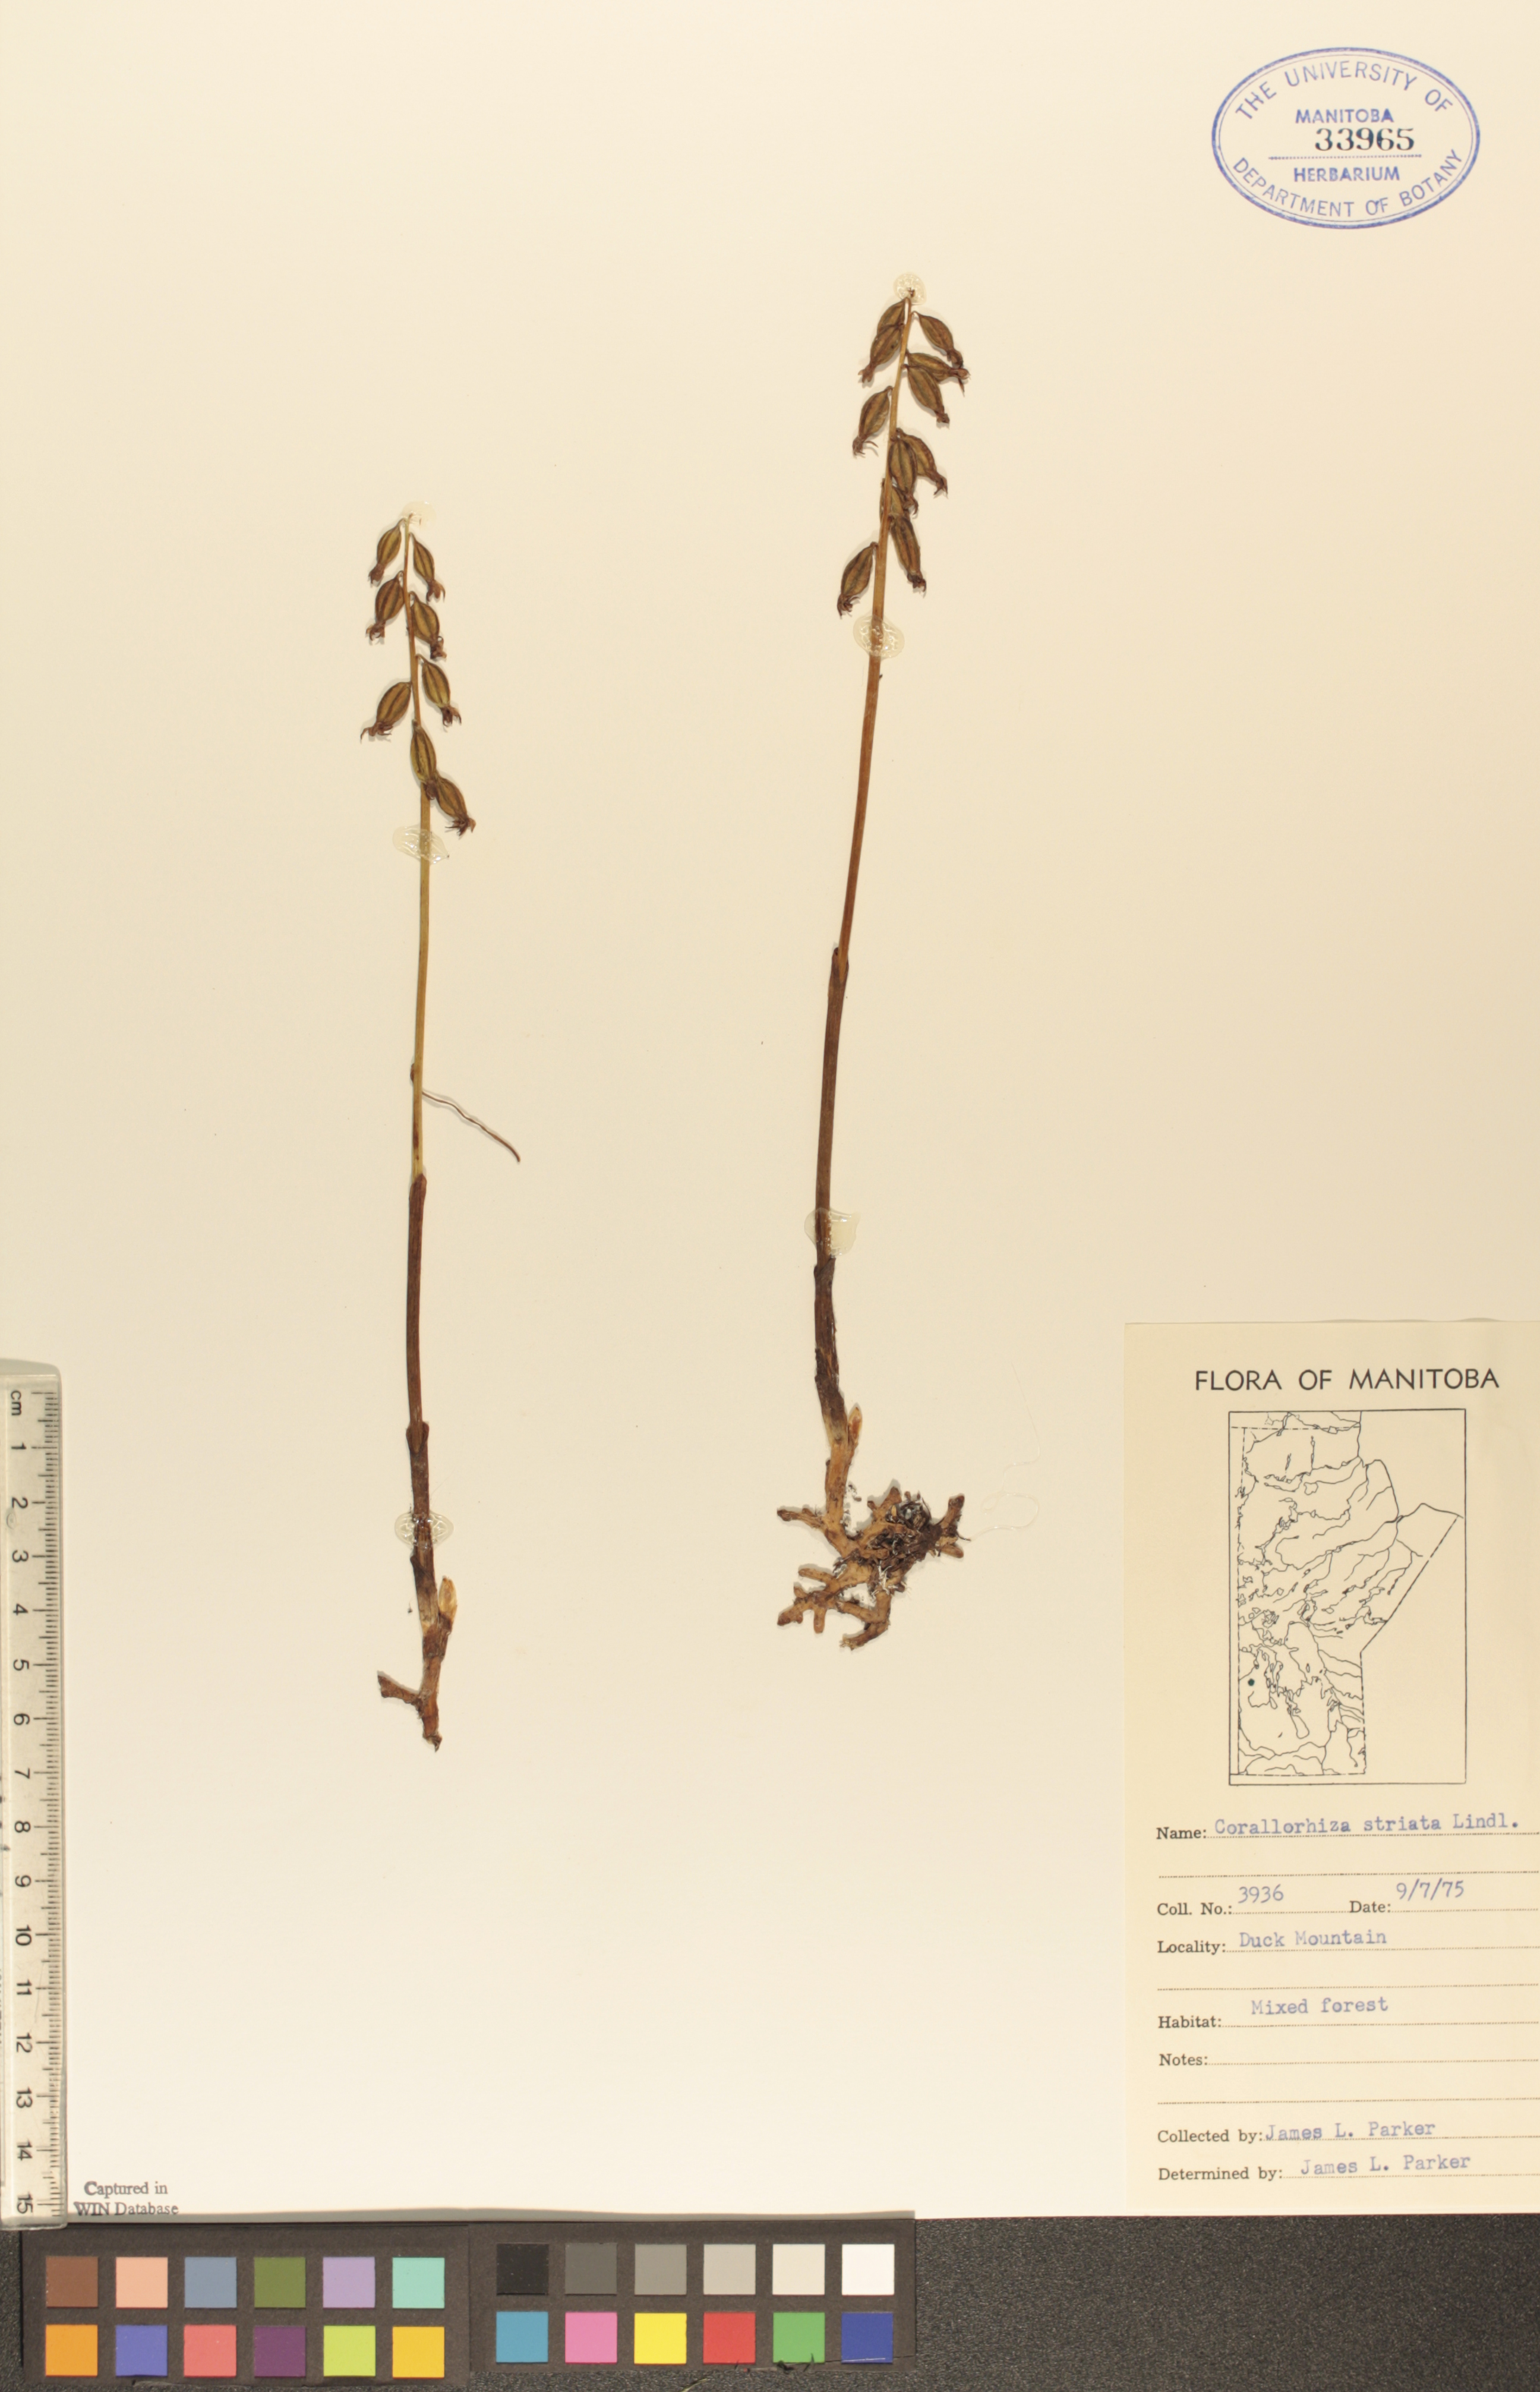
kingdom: Plantae
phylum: Tracheophyta
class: Liliopsida
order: Asparagales
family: Orchidaceae
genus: Corallorhiza
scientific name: Corallorhiza striata
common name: Hooded coralroot
